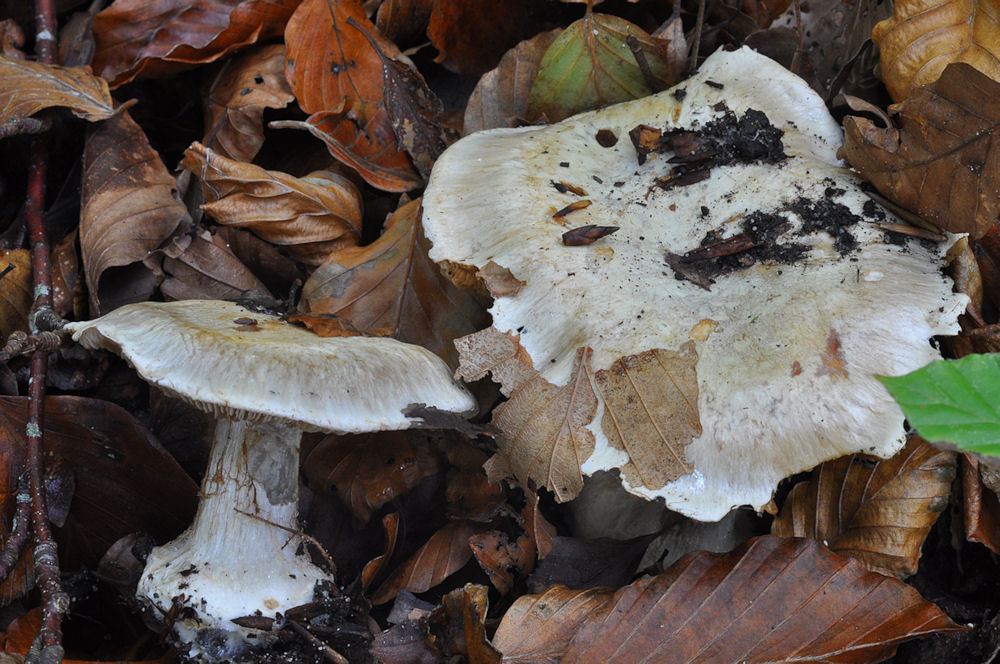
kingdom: Fungi
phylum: Basidiomycota
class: Agaricomycetes
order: Agaricales
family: Cortinariaceae
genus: Cortinarius
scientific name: Cortinarius foetens
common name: stribet slørhat
